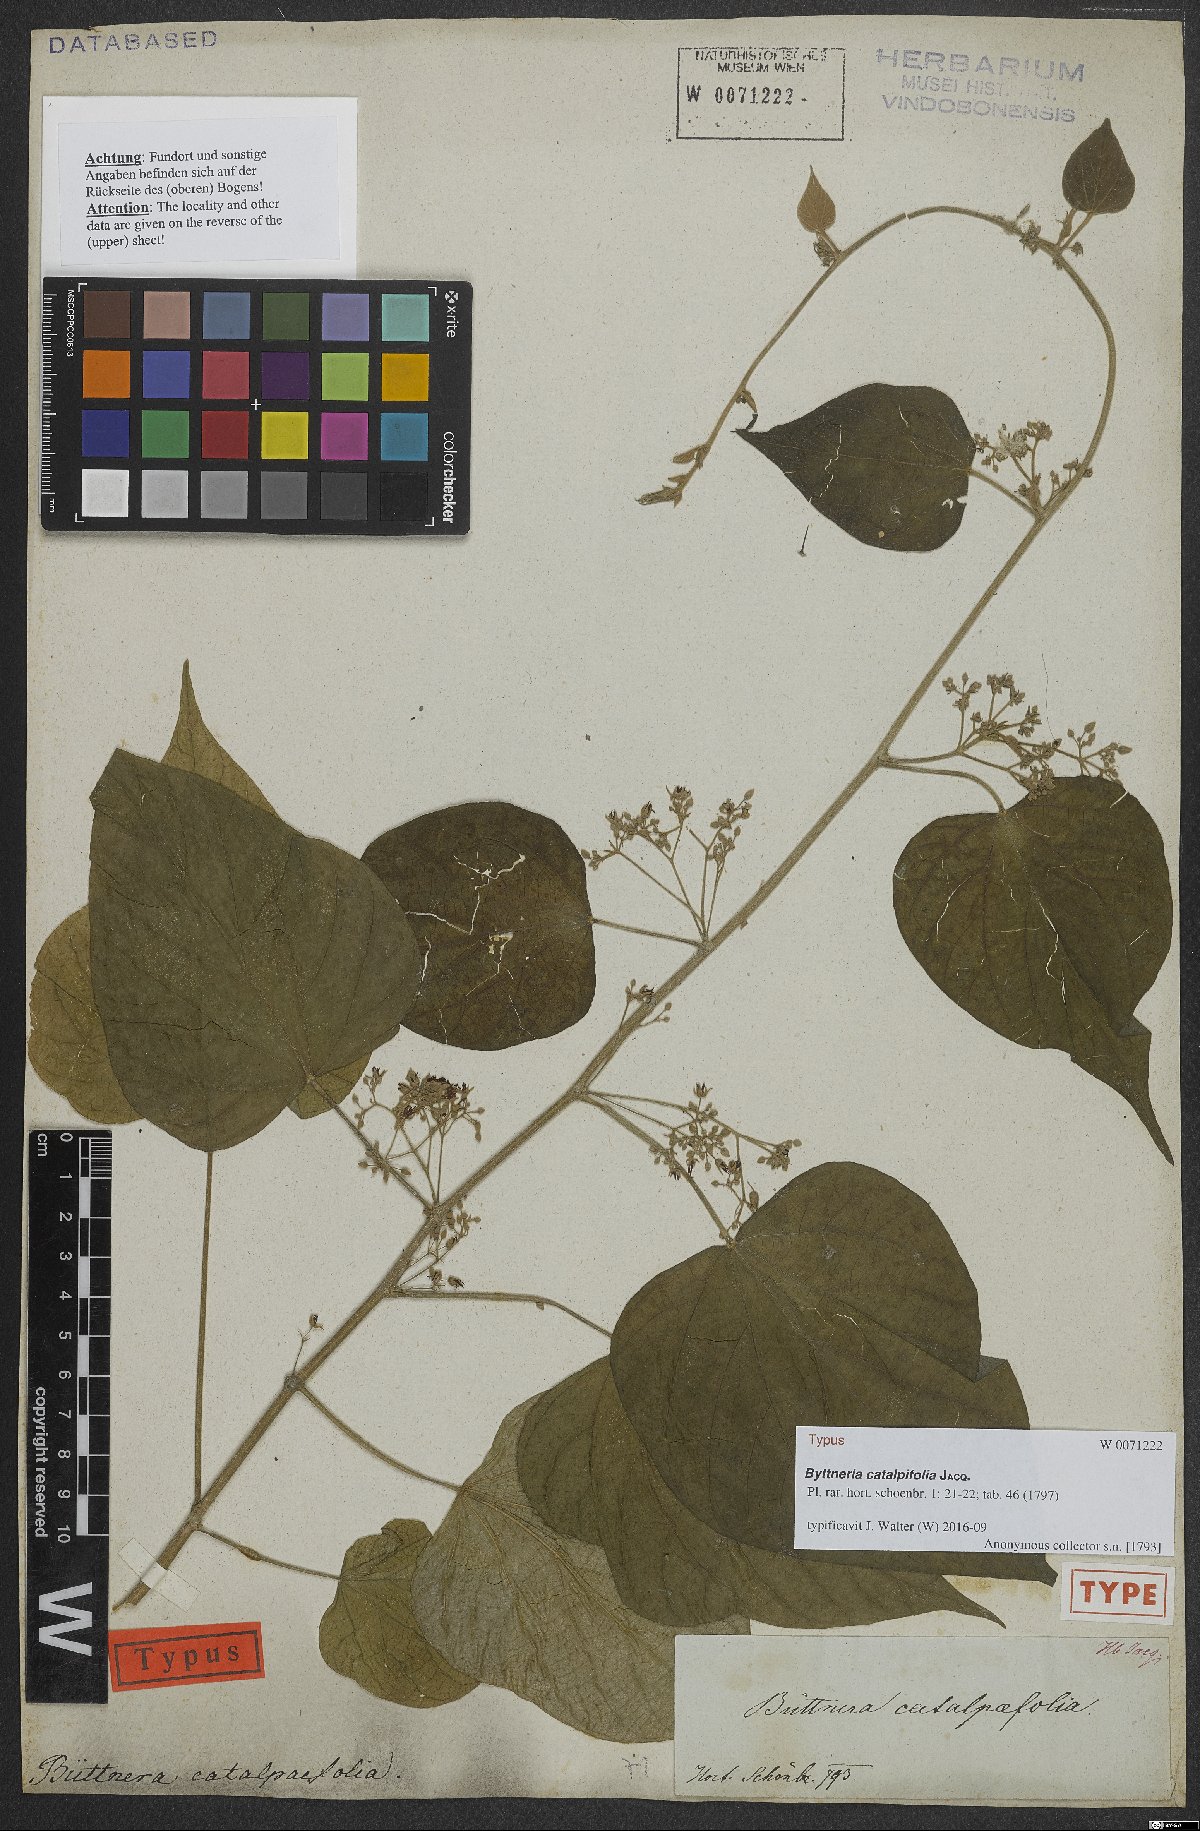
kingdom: Plantae
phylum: Tracheophyta
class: Magnoliopsida
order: Malvales
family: Malvaceae
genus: Byttneria
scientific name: Byttneria catalpifolia
